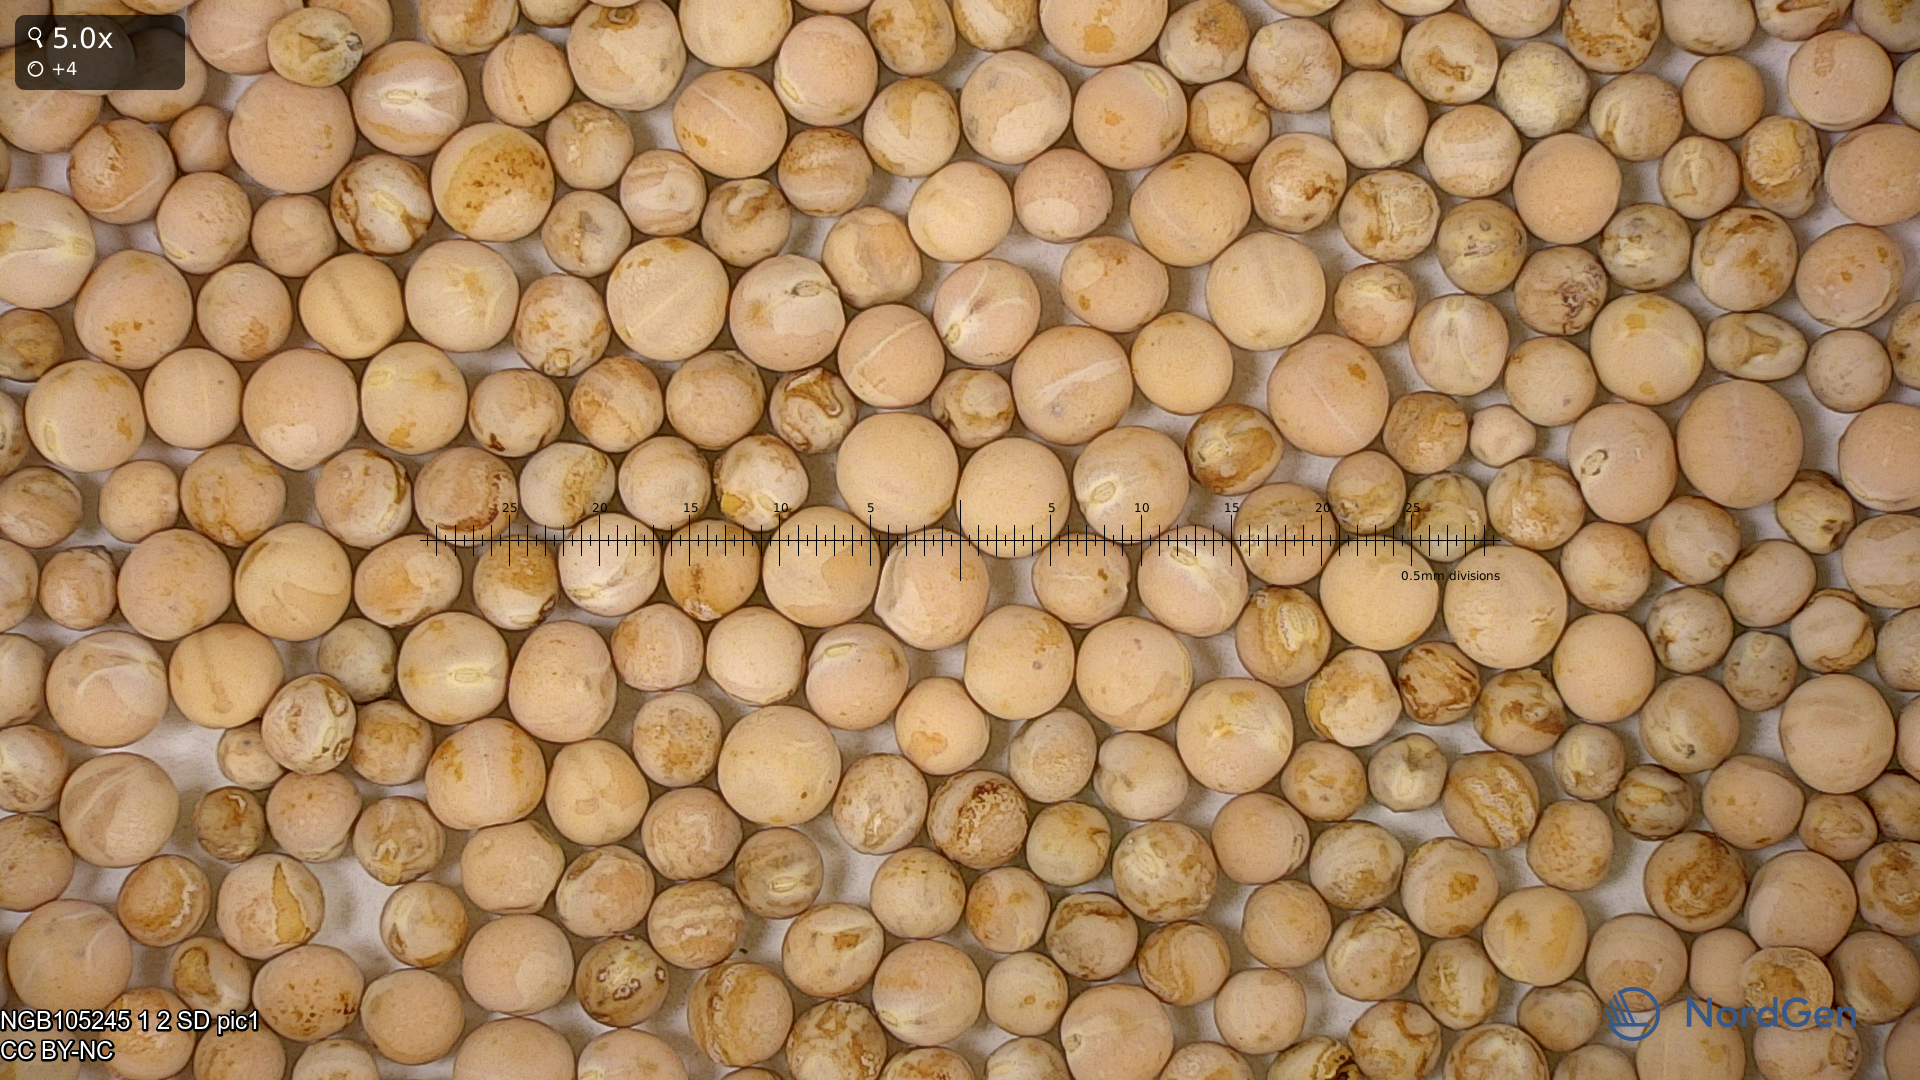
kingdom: Plantae
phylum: Tracheophyta
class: Magnoliopsida
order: Fabales
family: Fabaceae
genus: Lathyrus
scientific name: Lathyrus oleraceus
